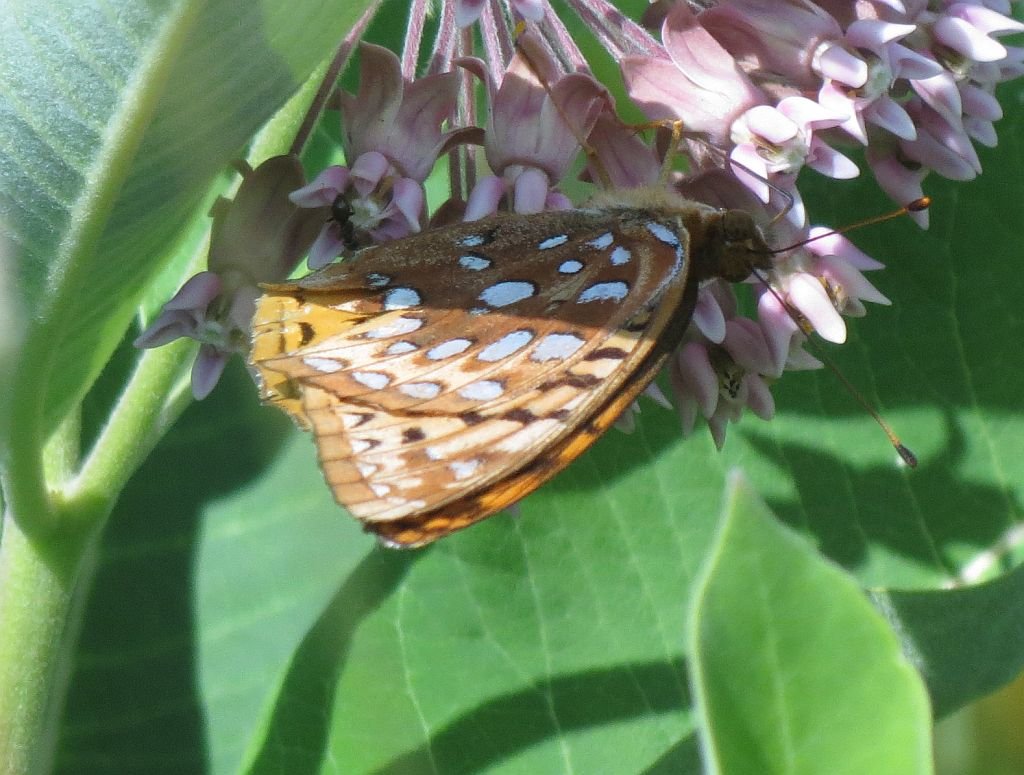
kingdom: Animalia
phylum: Arthropoda
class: Insecta
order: Lepidoptera
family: Nymphalidae
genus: Speyeria
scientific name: Speyeria cybele
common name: Great Spangled Fritillary
